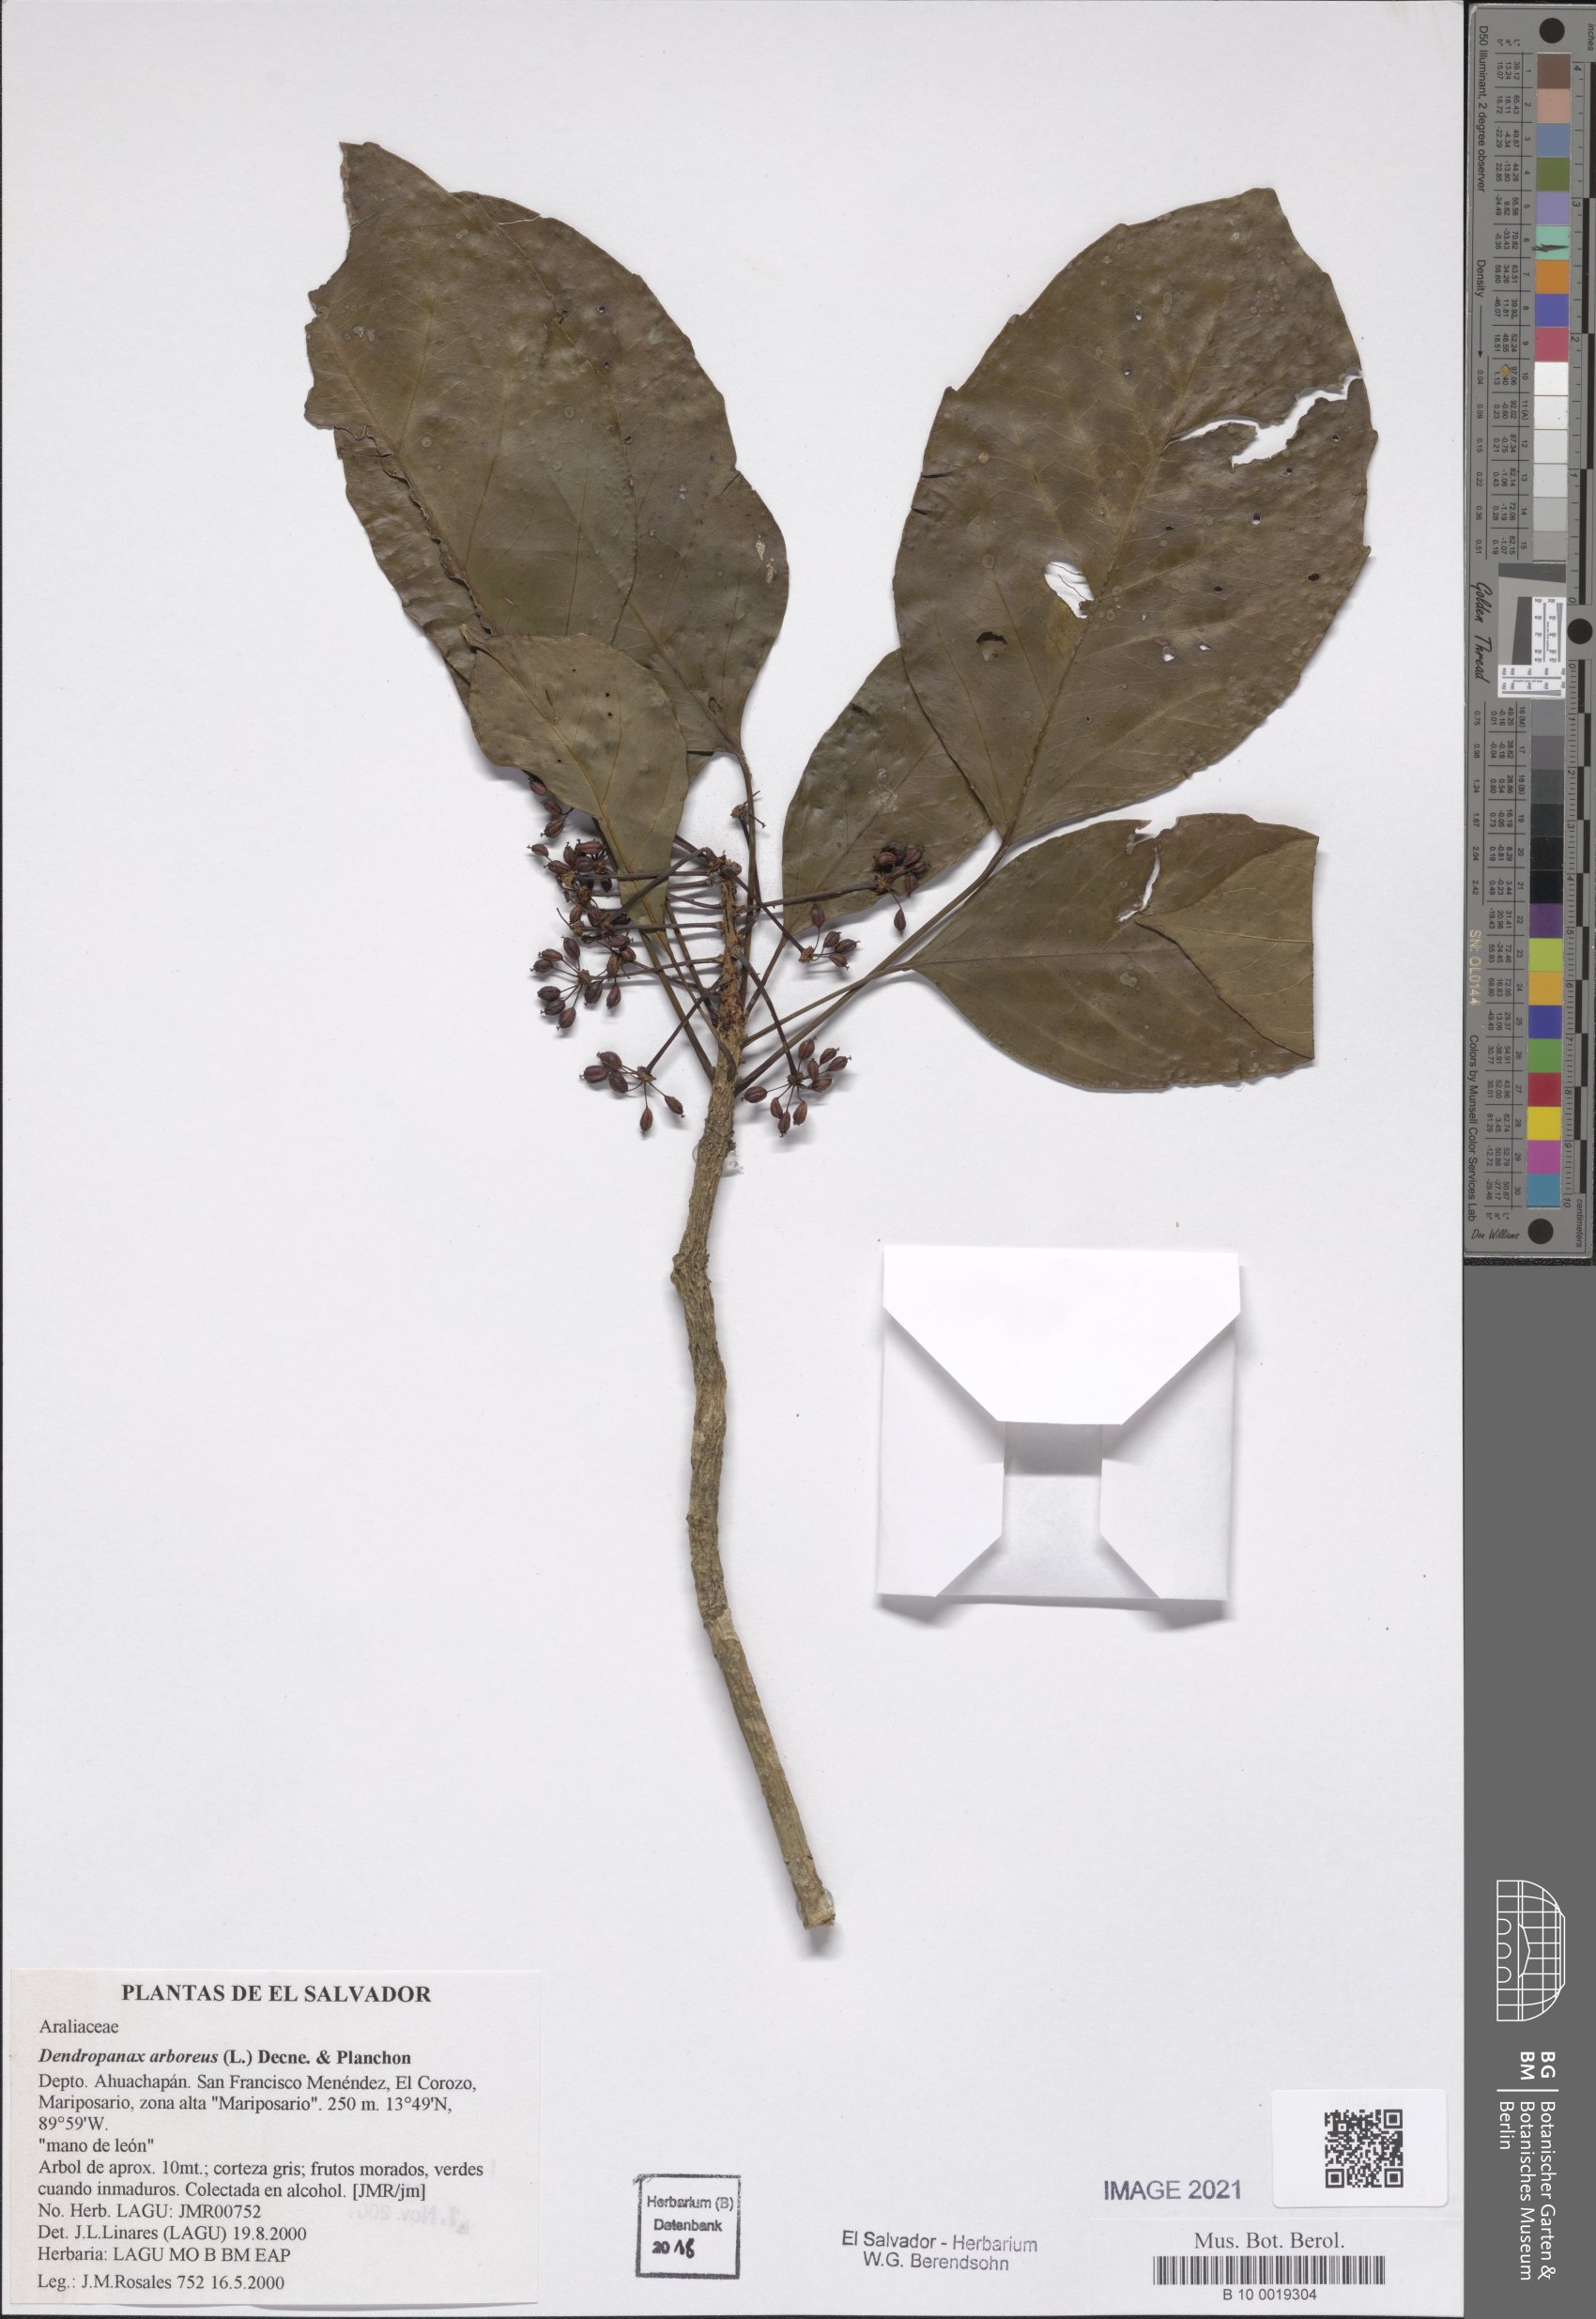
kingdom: Plantae
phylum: Tracheophyta
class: Magnoliopsida
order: Apiales
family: Araliaceae
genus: Dendropanax
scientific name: Dendropanax arboreus
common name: Potato-wood
